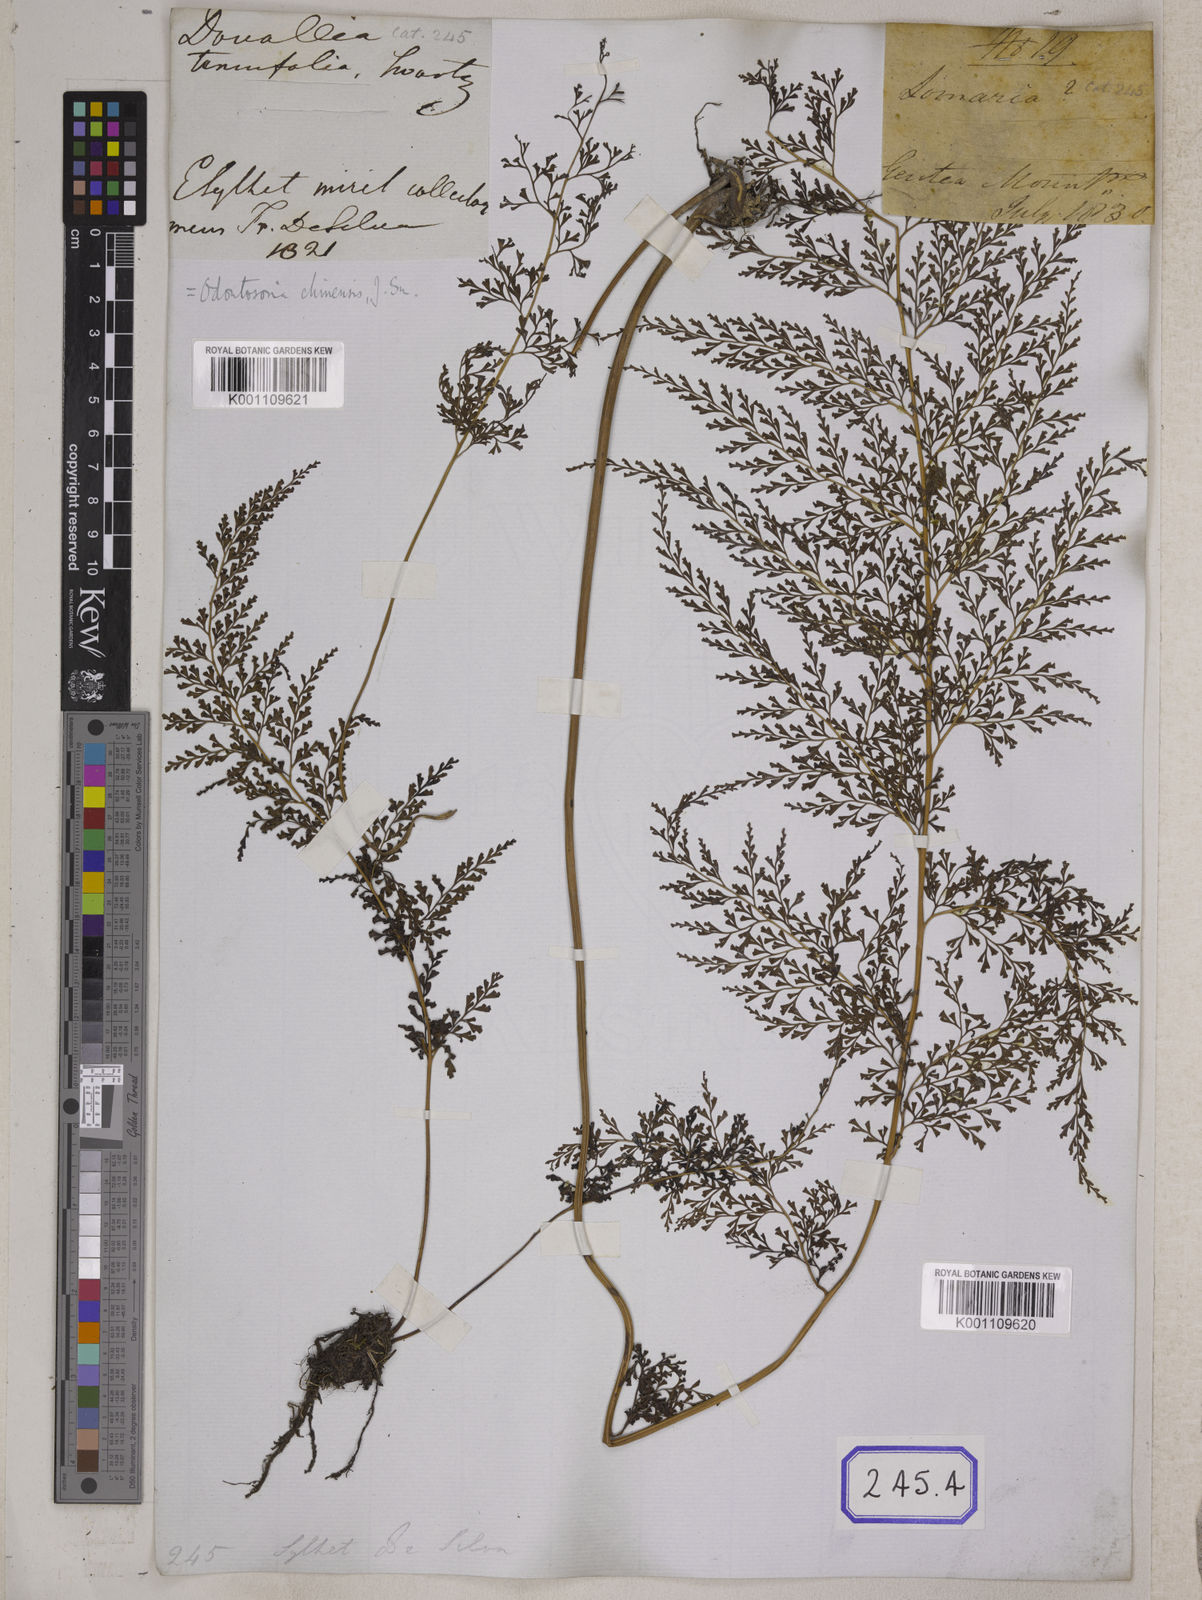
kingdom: Plantae
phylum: Tracheophyta
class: Polypodiopsida
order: Polypodiales
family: Lindsaeaceae
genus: Odontosoria
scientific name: Odontosoria chinensis
